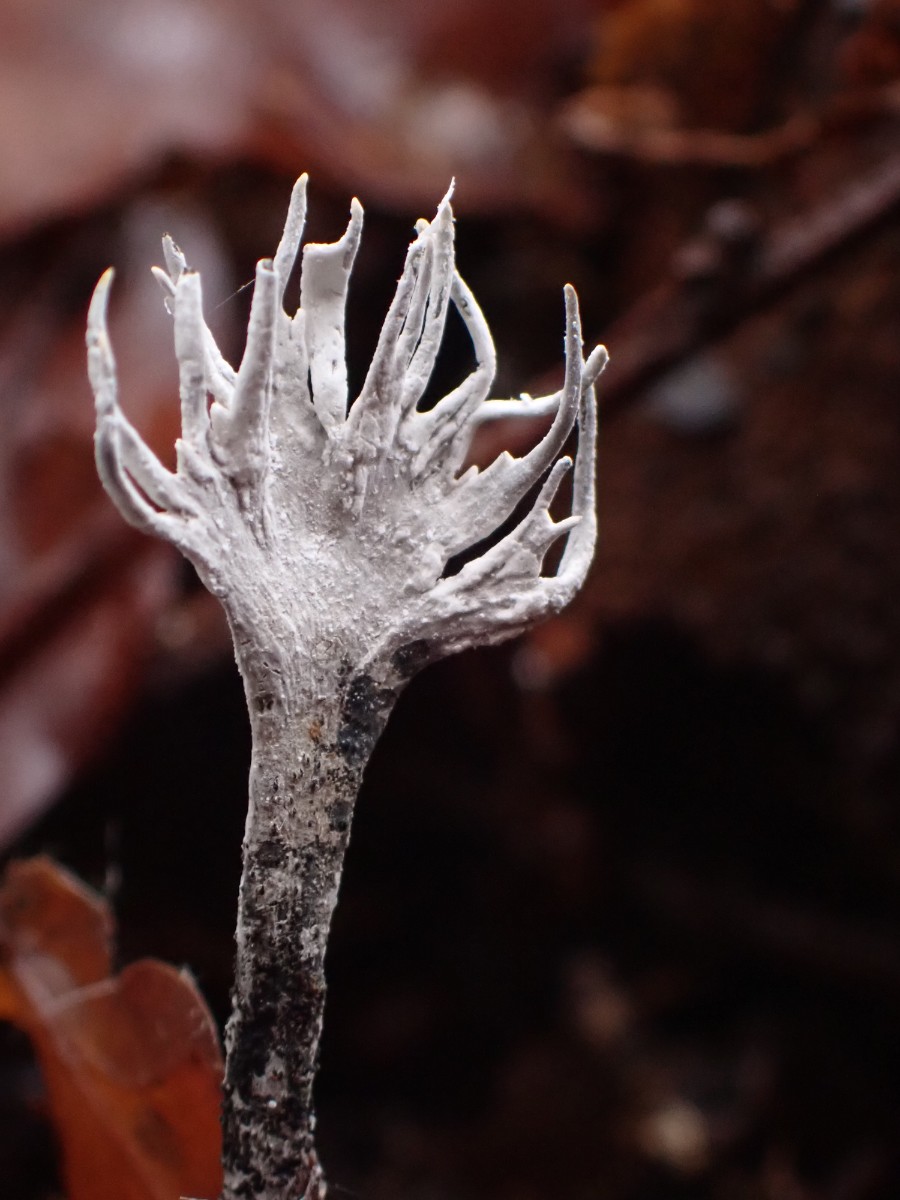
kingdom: Fungi
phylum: Ascomycota
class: Sordariomycetes
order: Xylariales
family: Xylariaceae
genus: Xylaria
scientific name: Xylaria hypoxylon
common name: grenet stødsvamp
